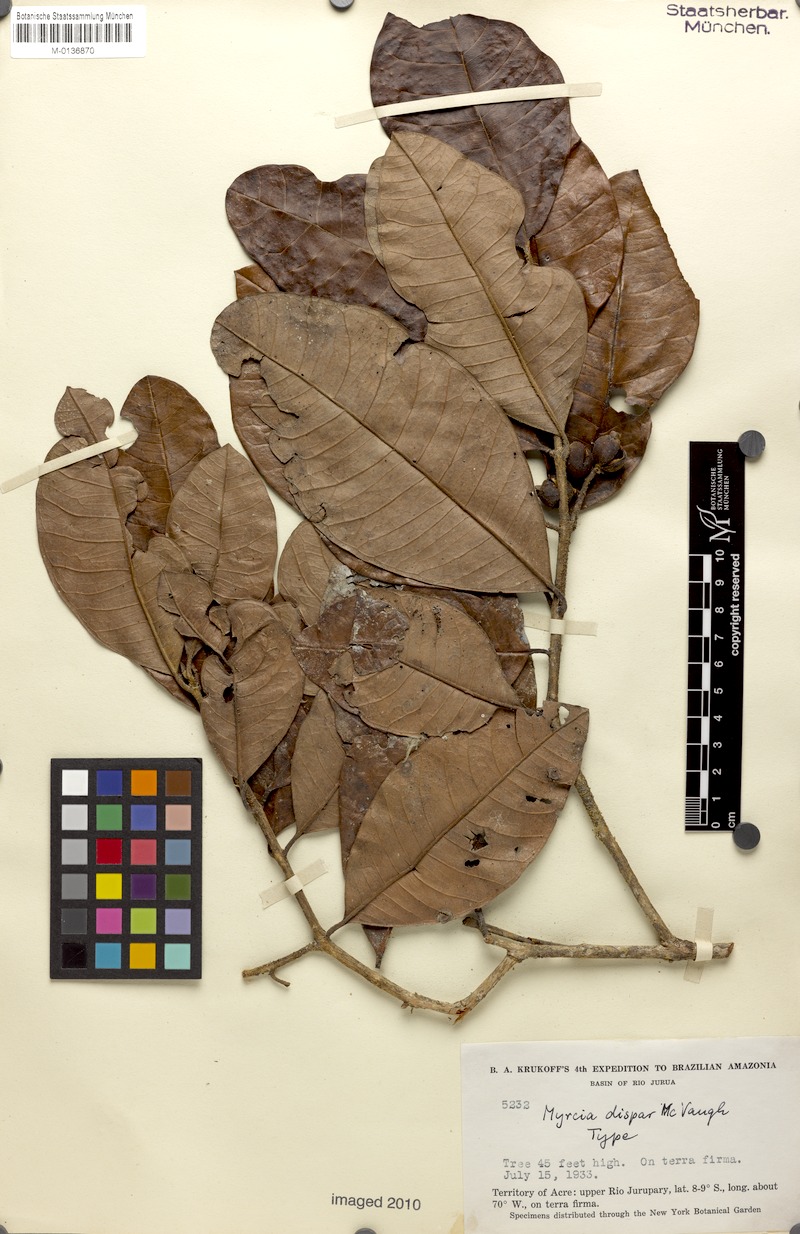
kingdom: Plantae
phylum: Tracheophyta
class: Magnoliopsida
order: Myrtales
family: Myrtaceae
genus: Myrcia
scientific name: Myrcia dispar
